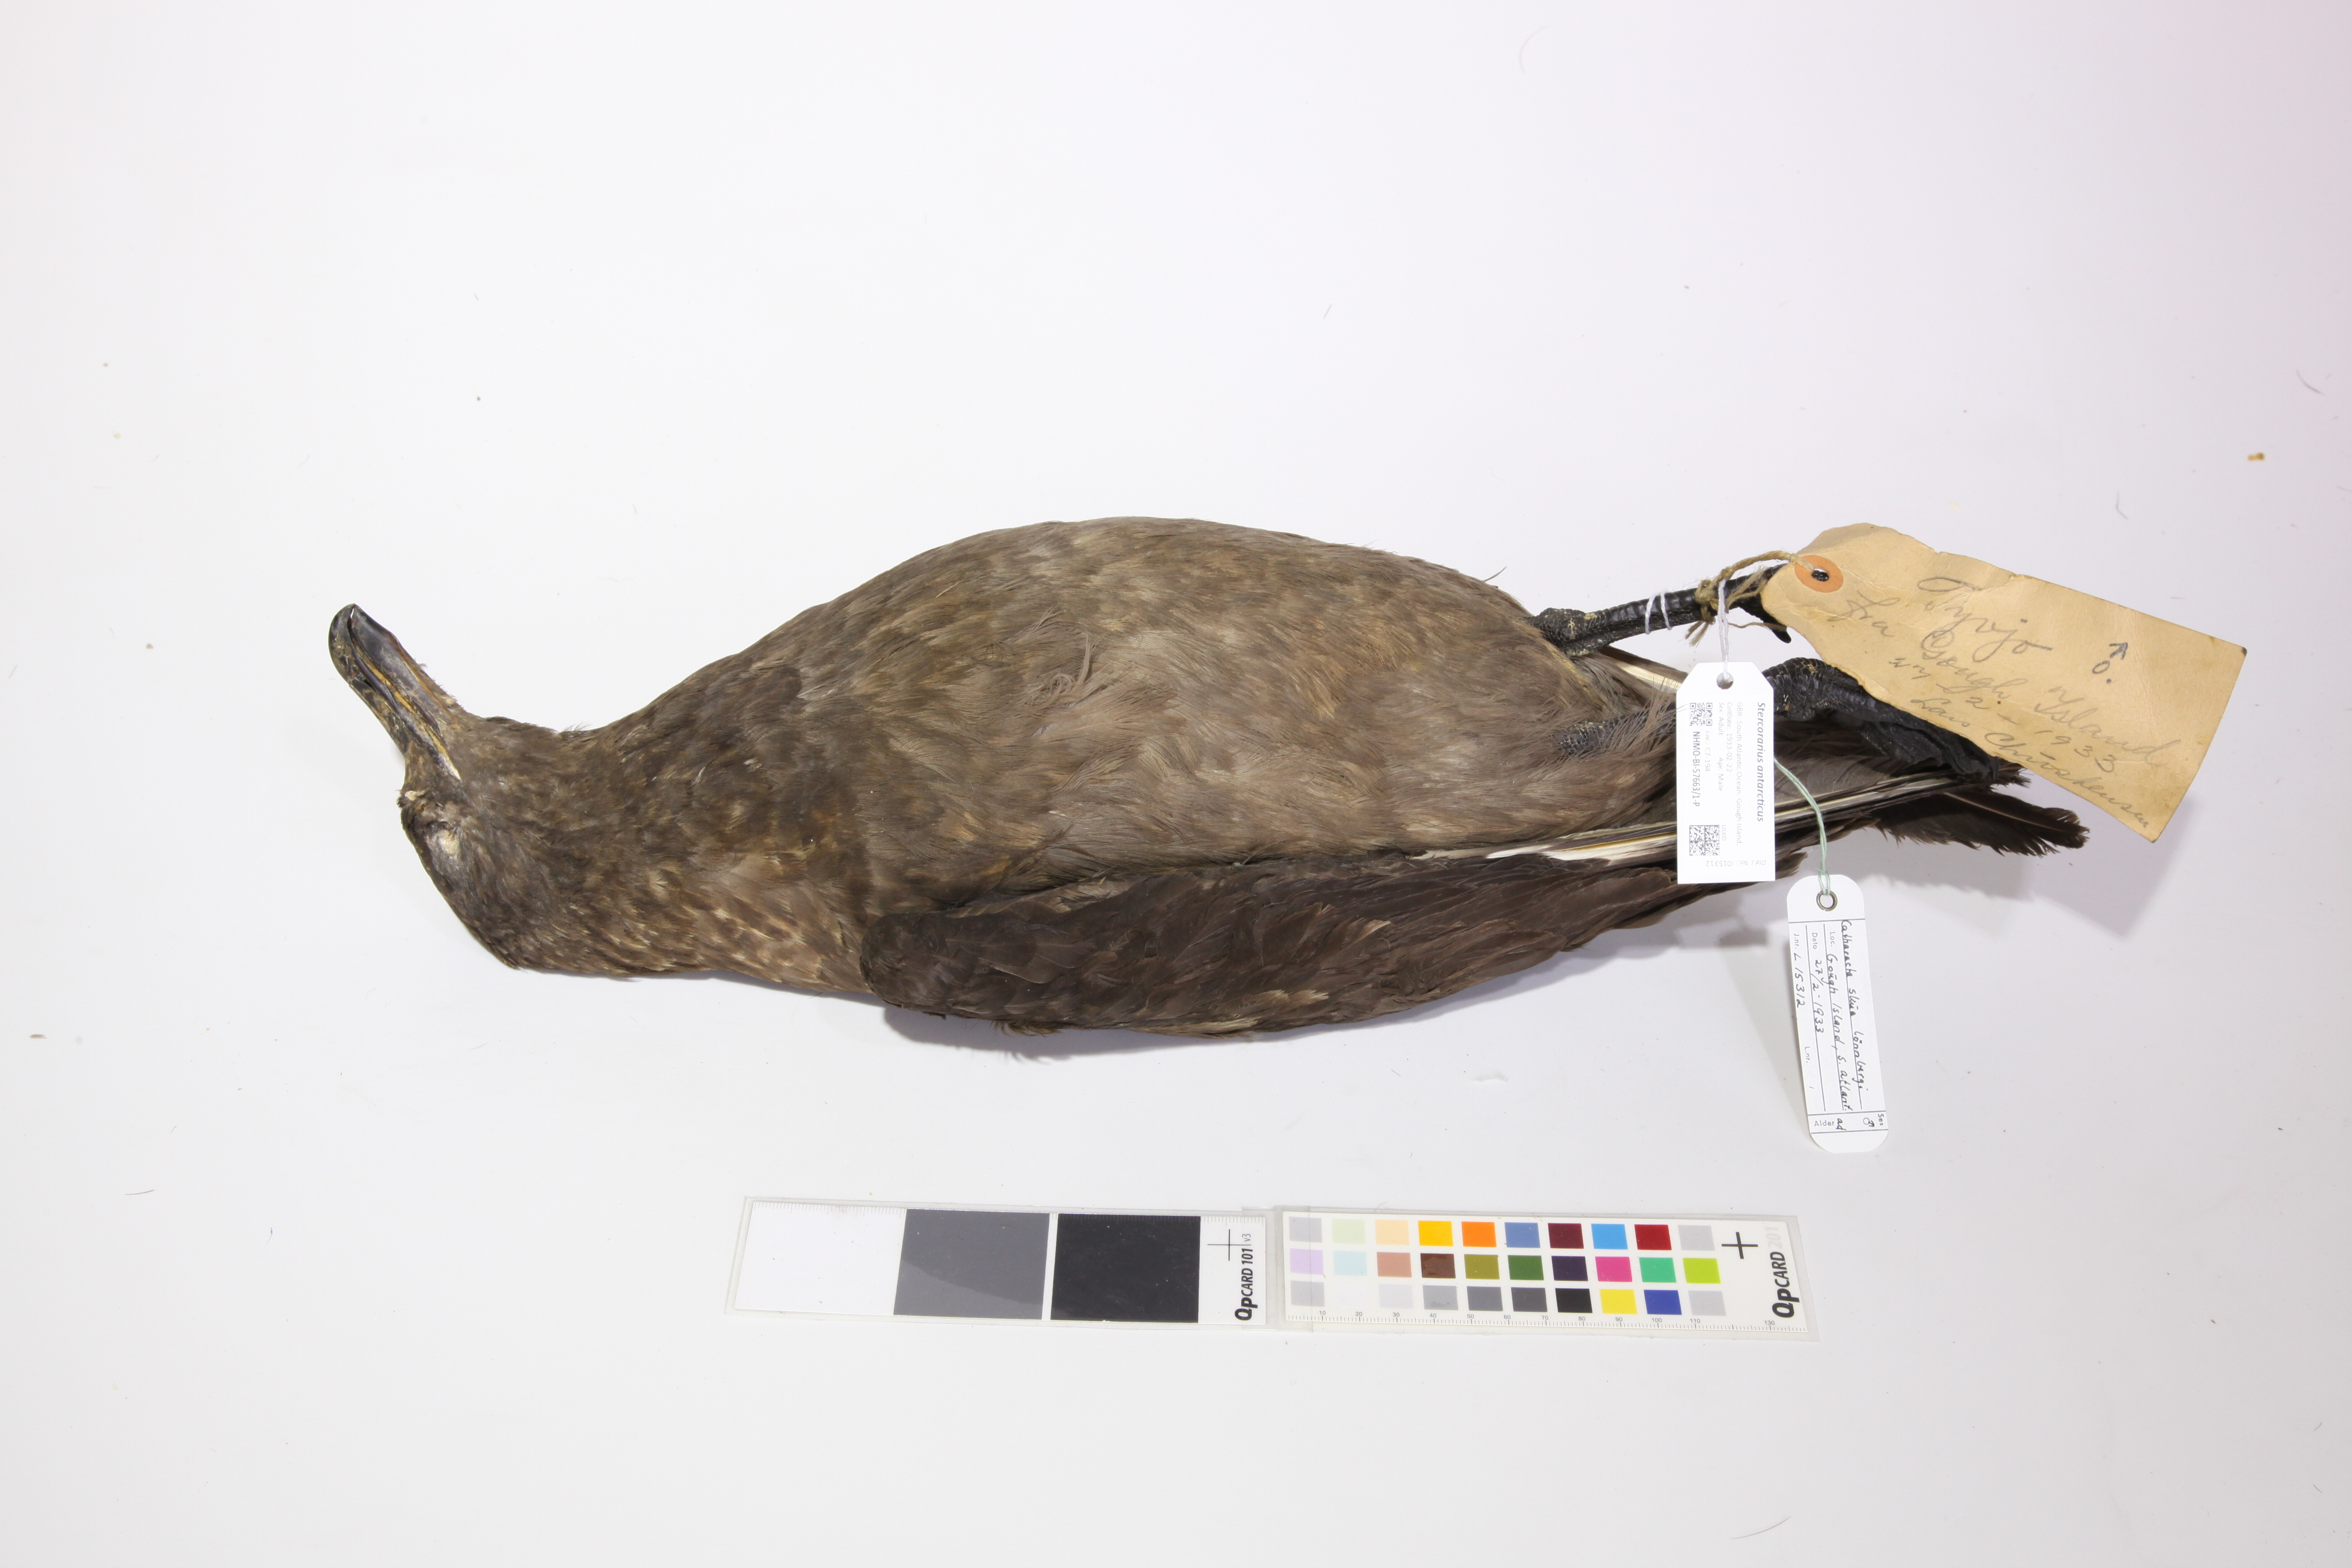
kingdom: Animalia
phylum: Chordata
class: Aves
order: Charadriiformes
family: Stercorariidae
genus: Stercorarius
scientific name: Stercorarius antarcticus
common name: Brown skua
